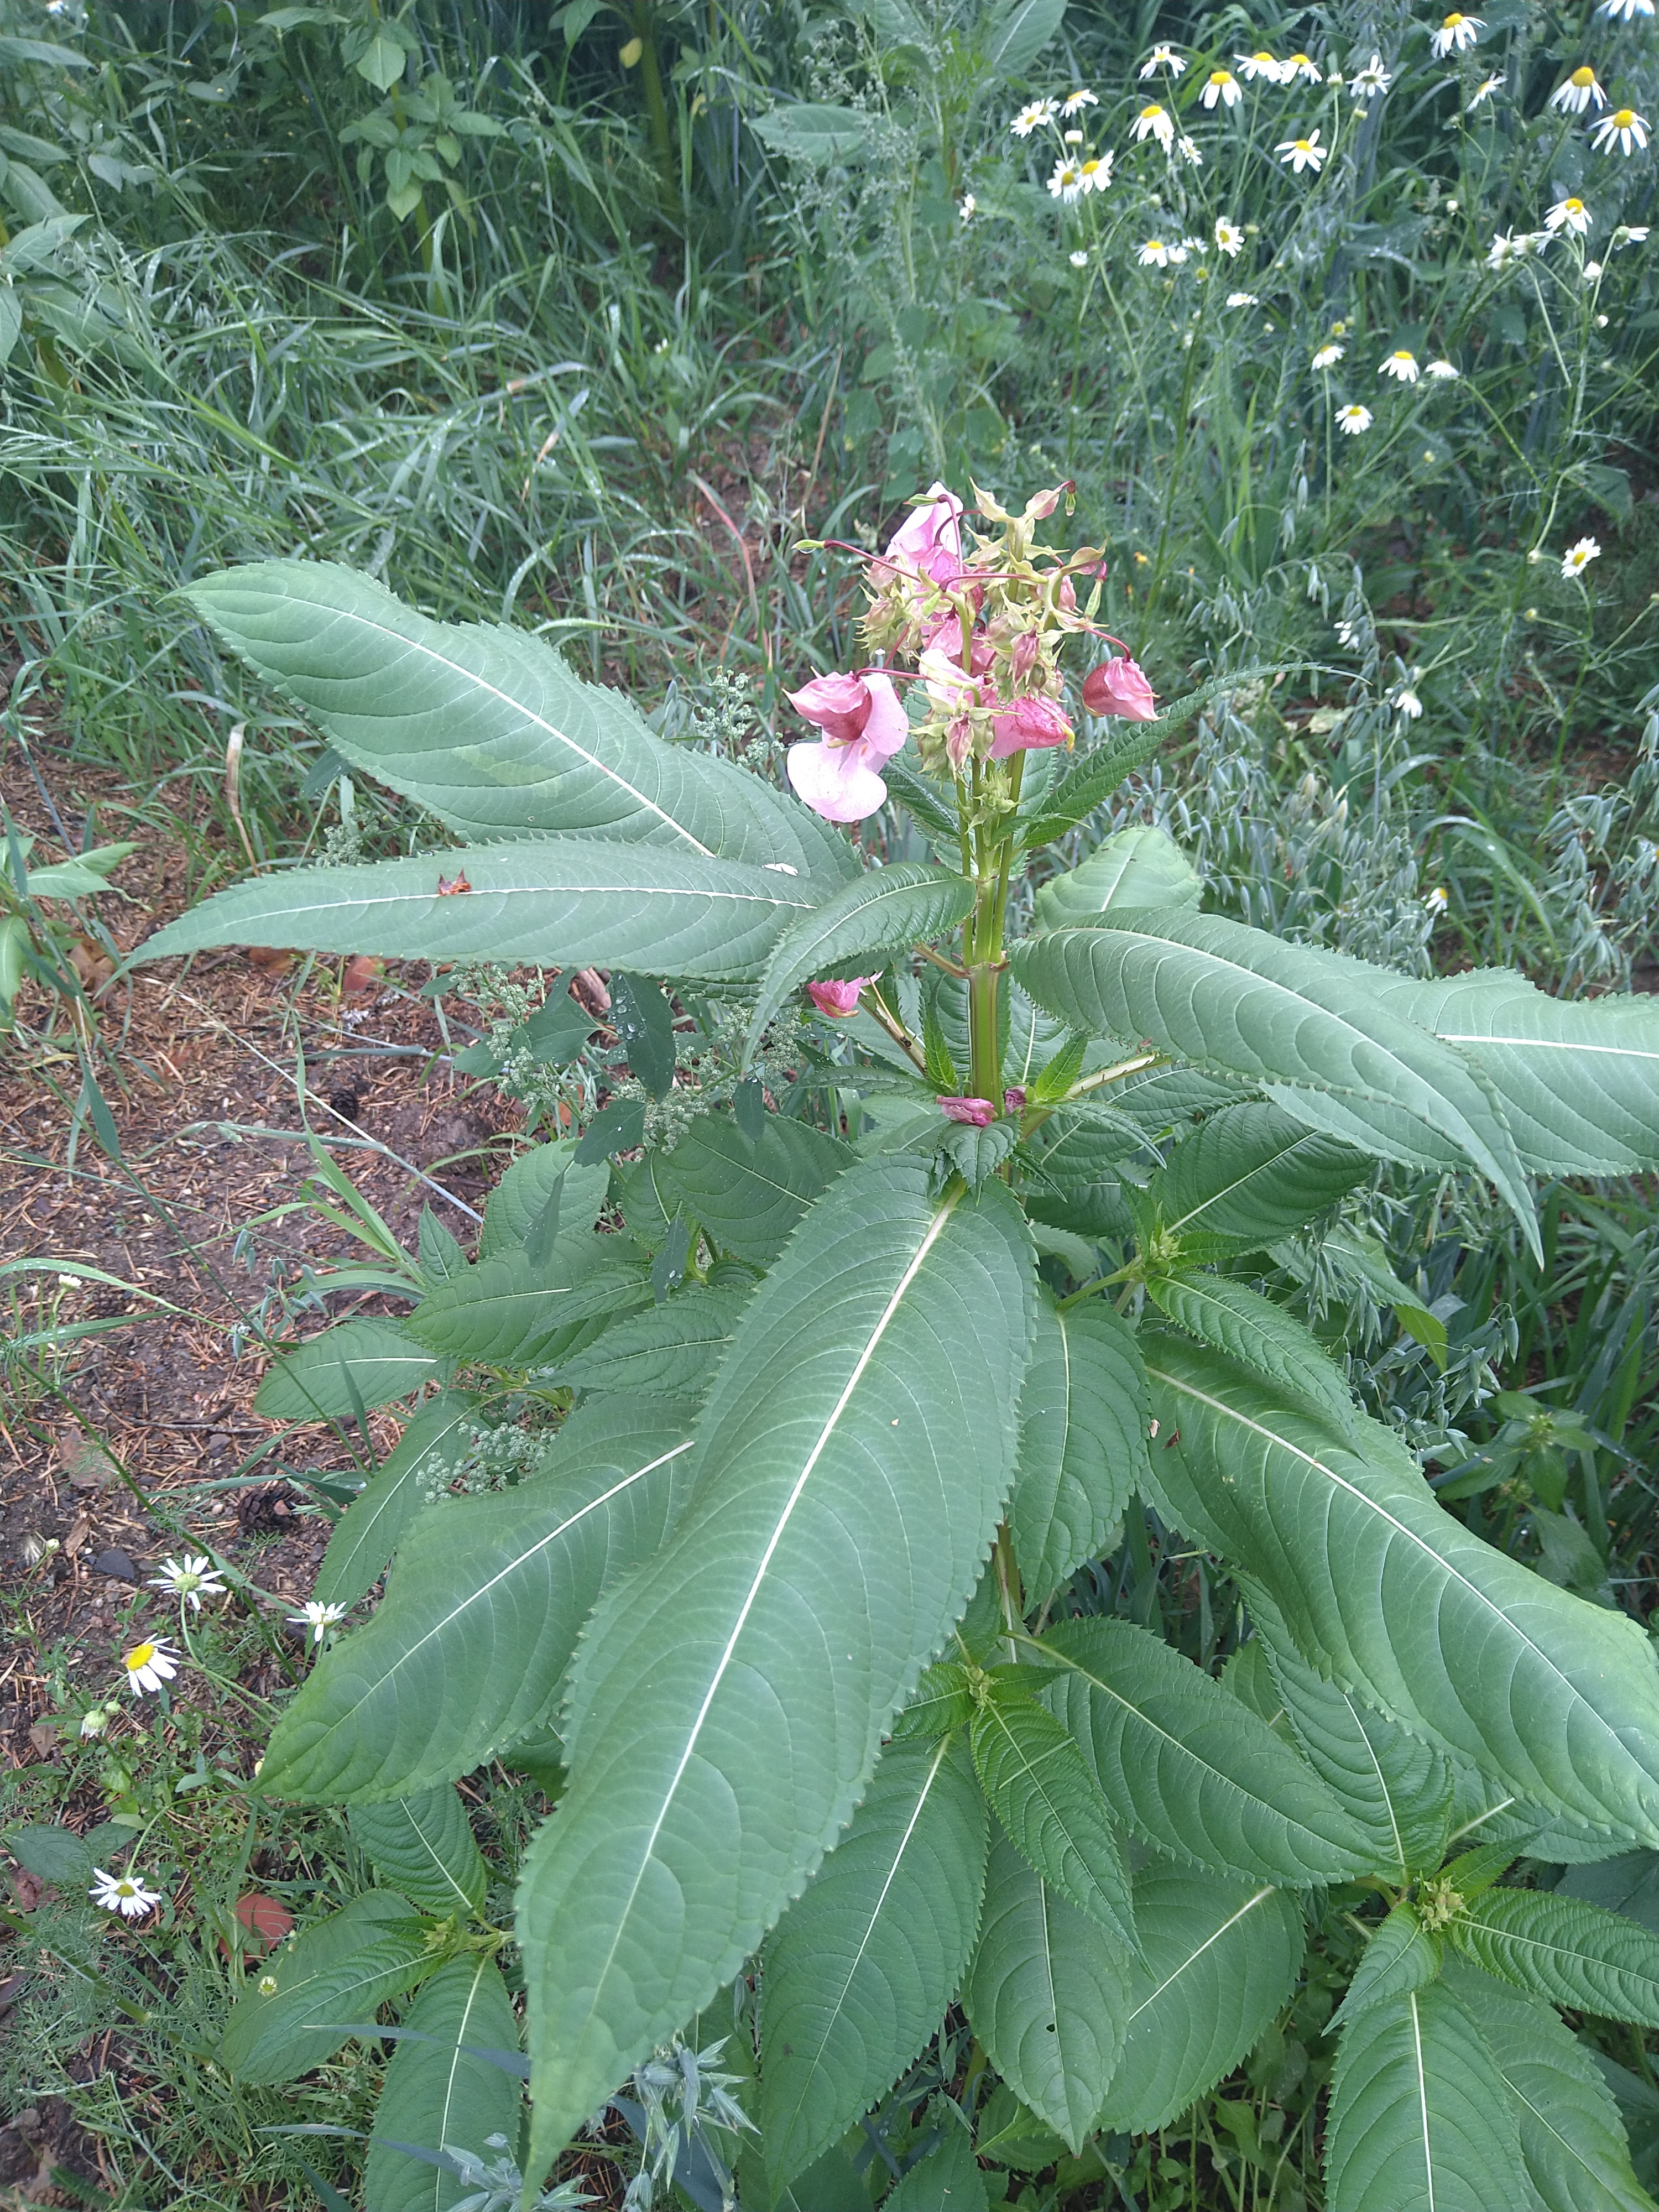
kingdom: Plantae
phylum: Tracheophyta
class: Magnoliopsida
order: Ericales
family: Balsaminaceae
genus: Impatiens
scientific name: Impatiens glandulifera
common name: Himalayan balsam
